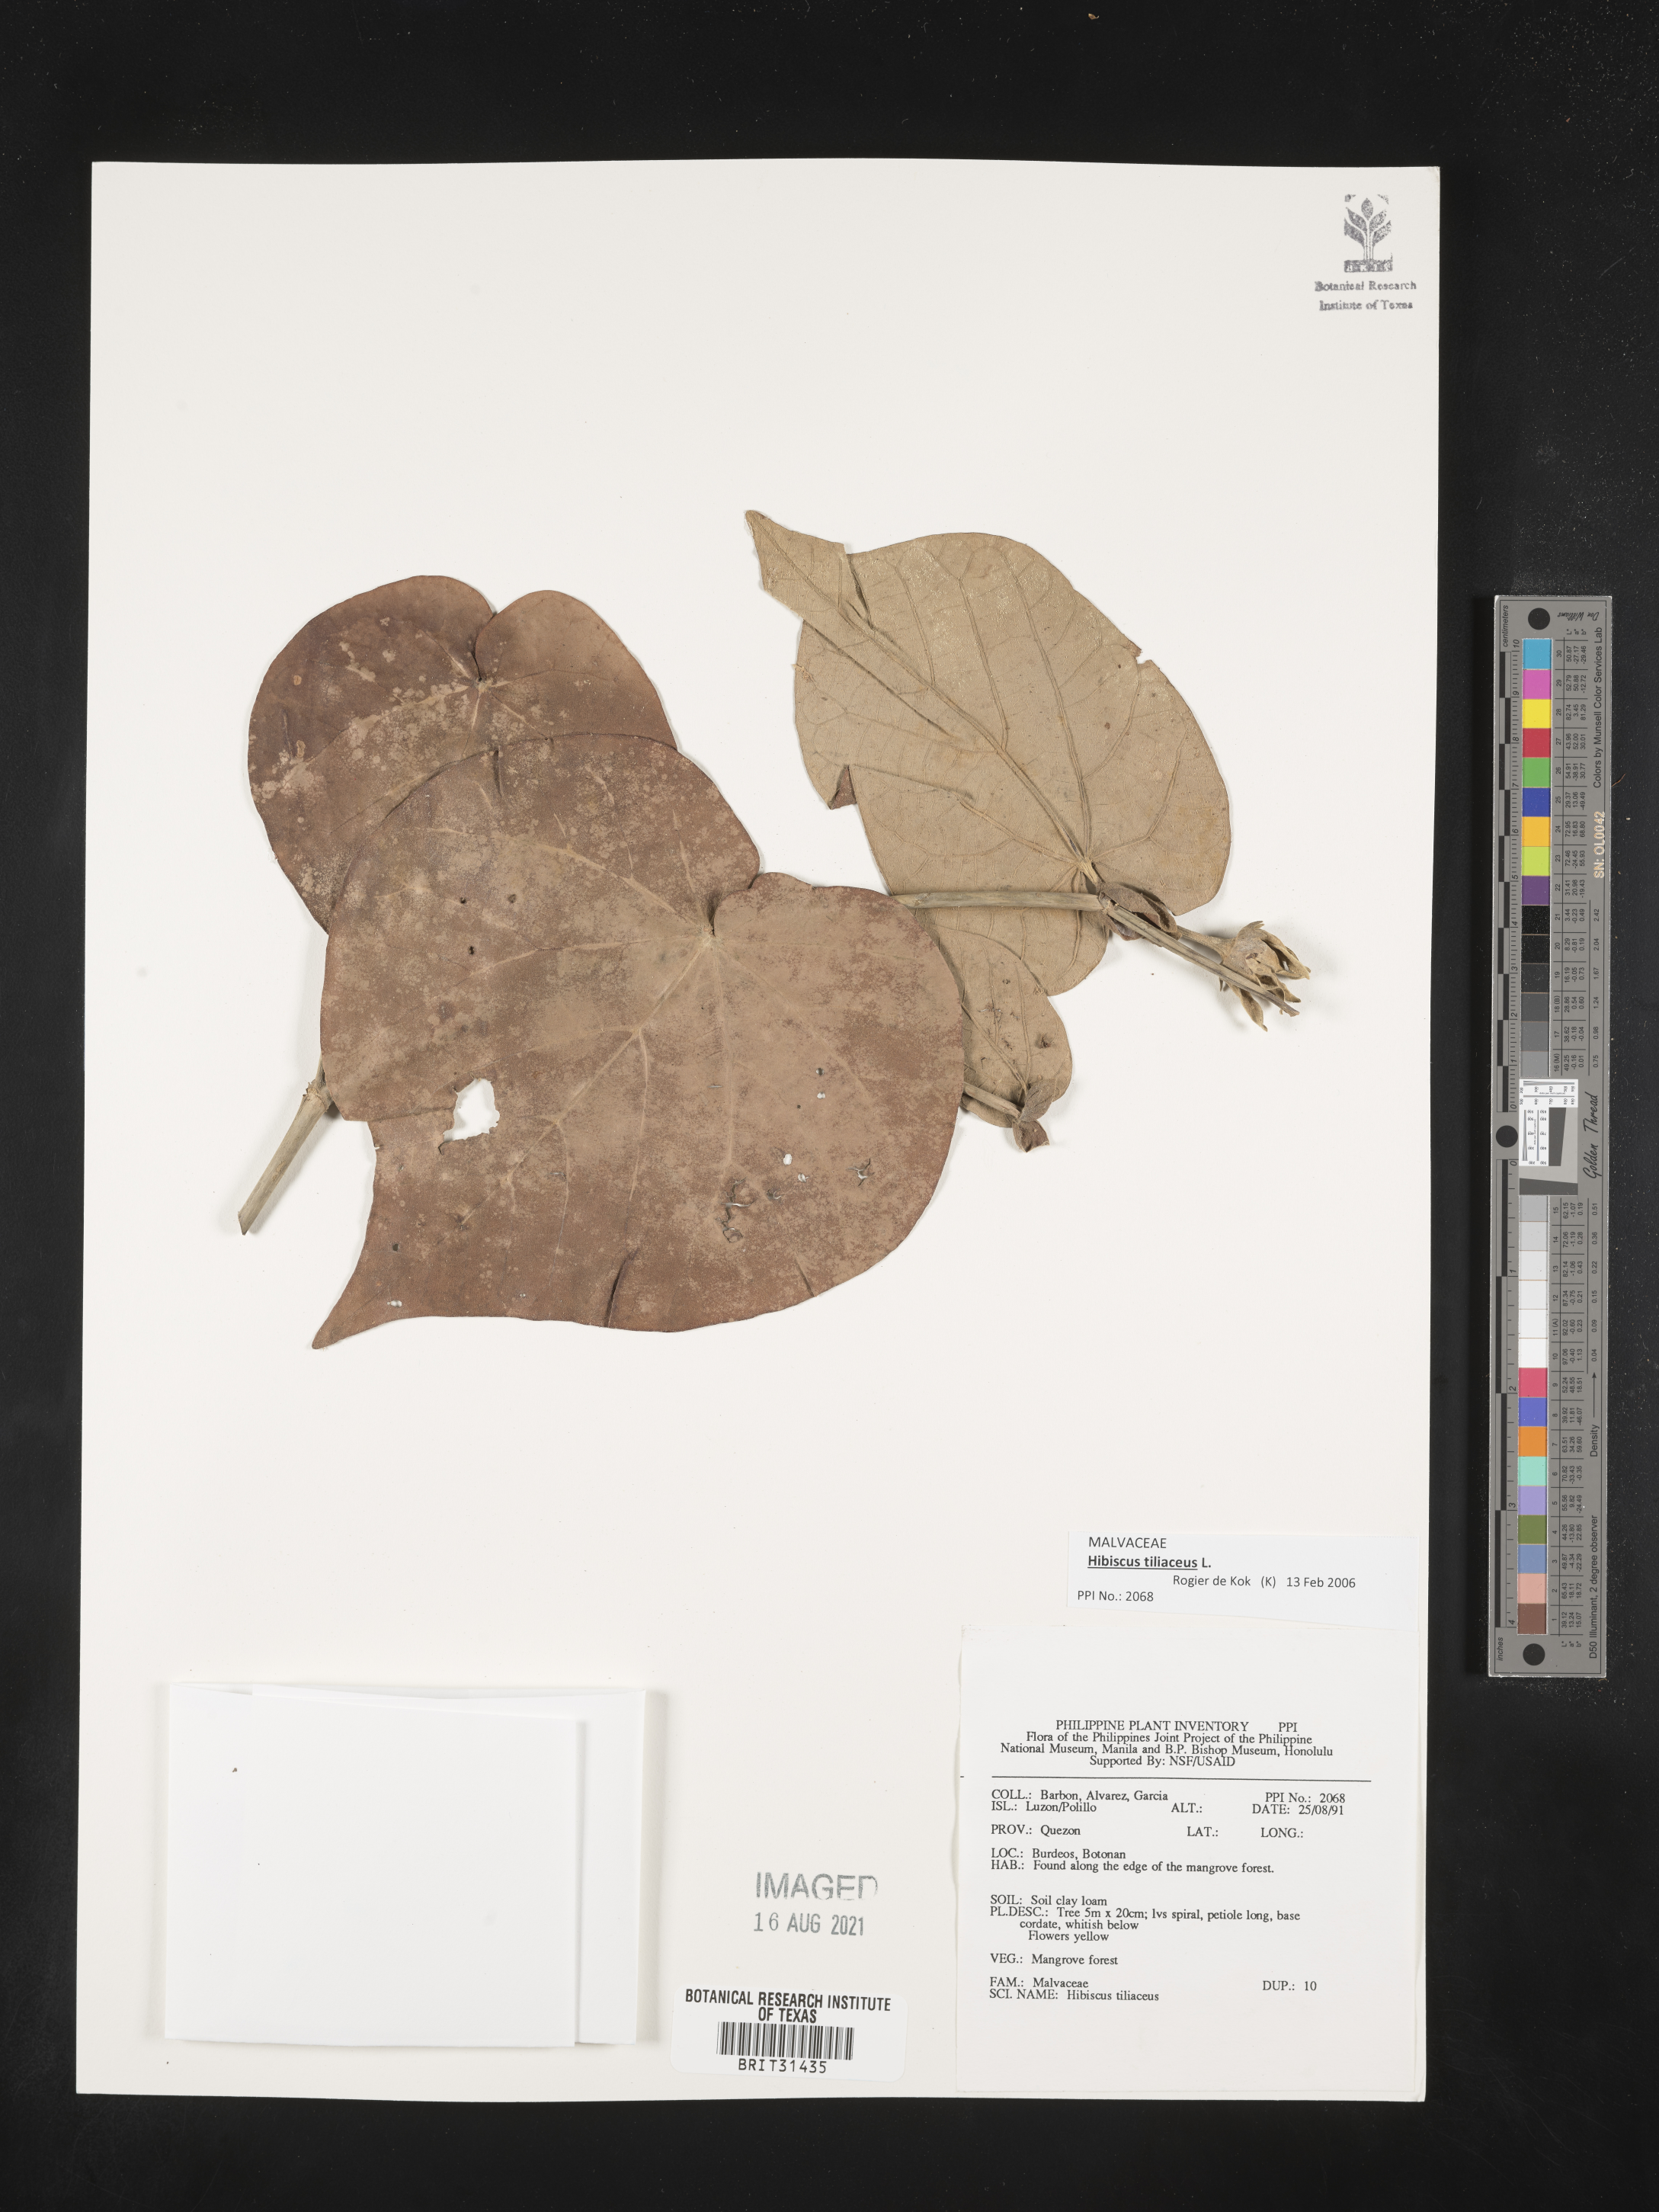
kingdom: Plantae
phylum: Tracheophyta
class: Magnoliopsida
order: Malvales
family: Malvaceae
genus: Talipariti
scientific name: Talipariti tiliaceum
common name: Sea hibiscus
